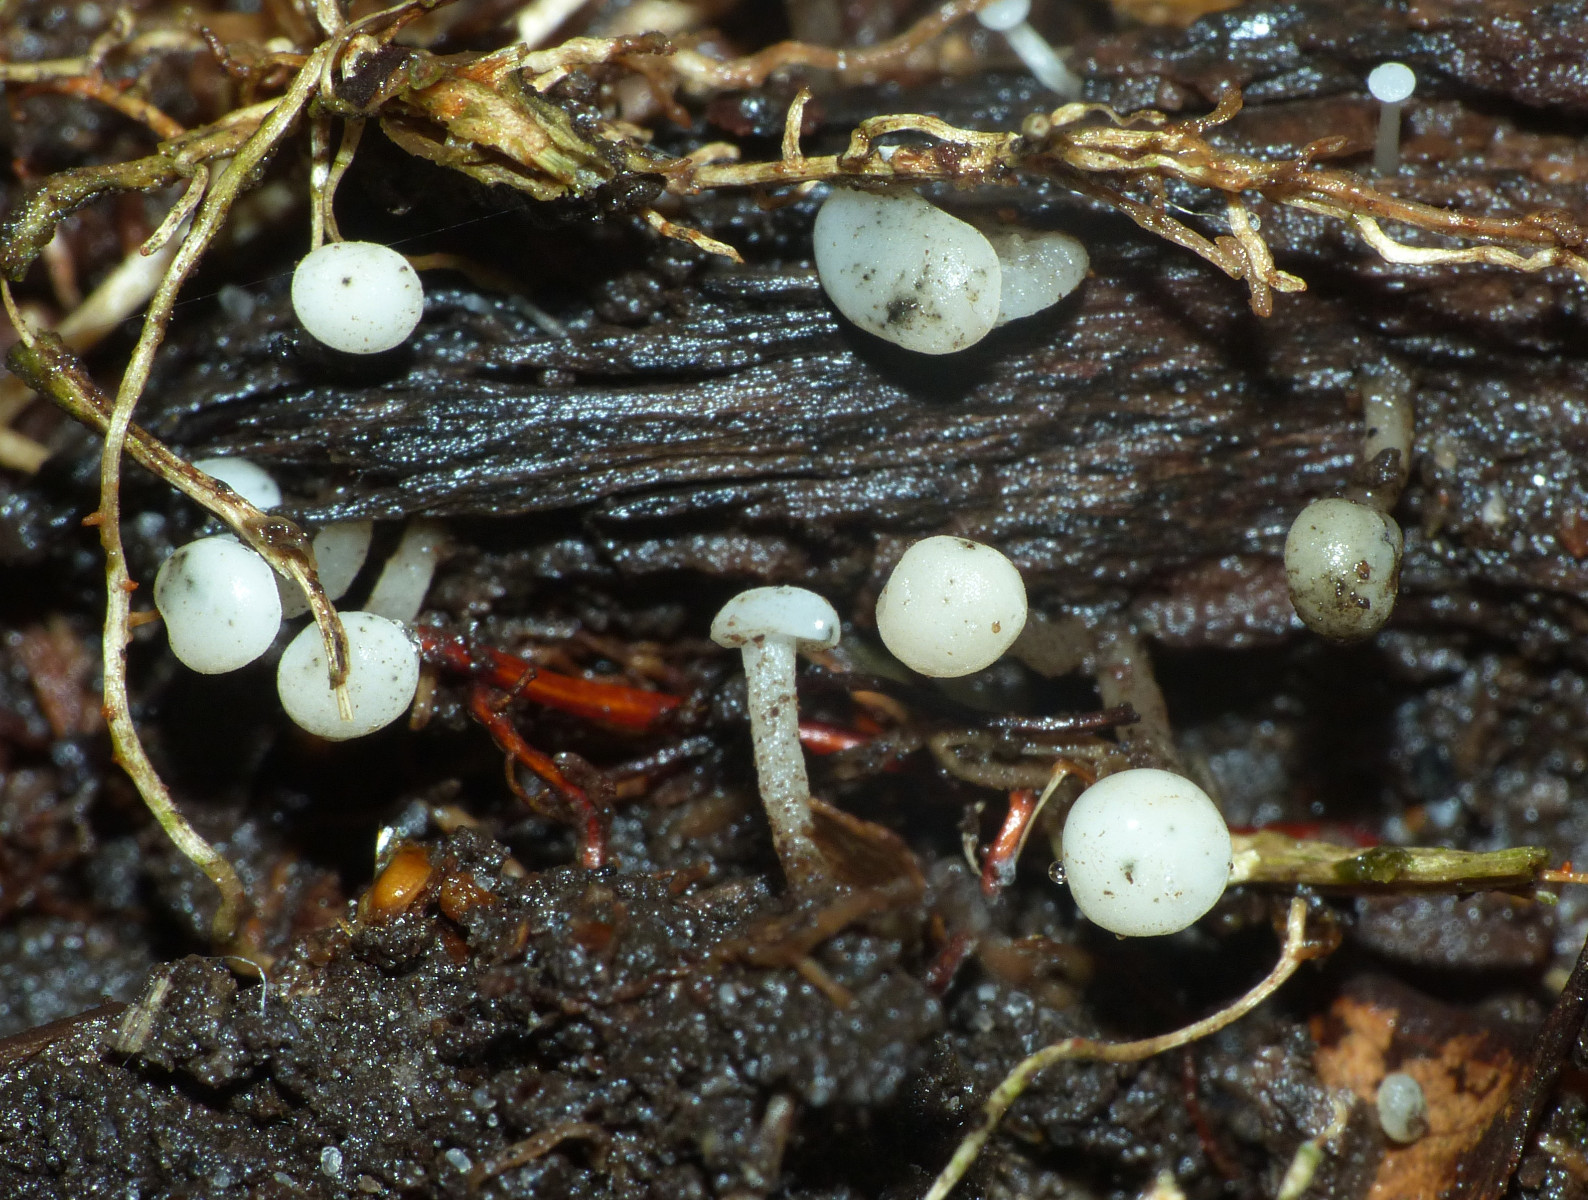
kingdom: Fungi
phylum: Ascomycota
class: Leotiomycetes
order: Helotiales
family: Tricladiaceae
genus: Cudoniella
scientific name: Cudoniella acicularis
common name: ege-dyndskive
